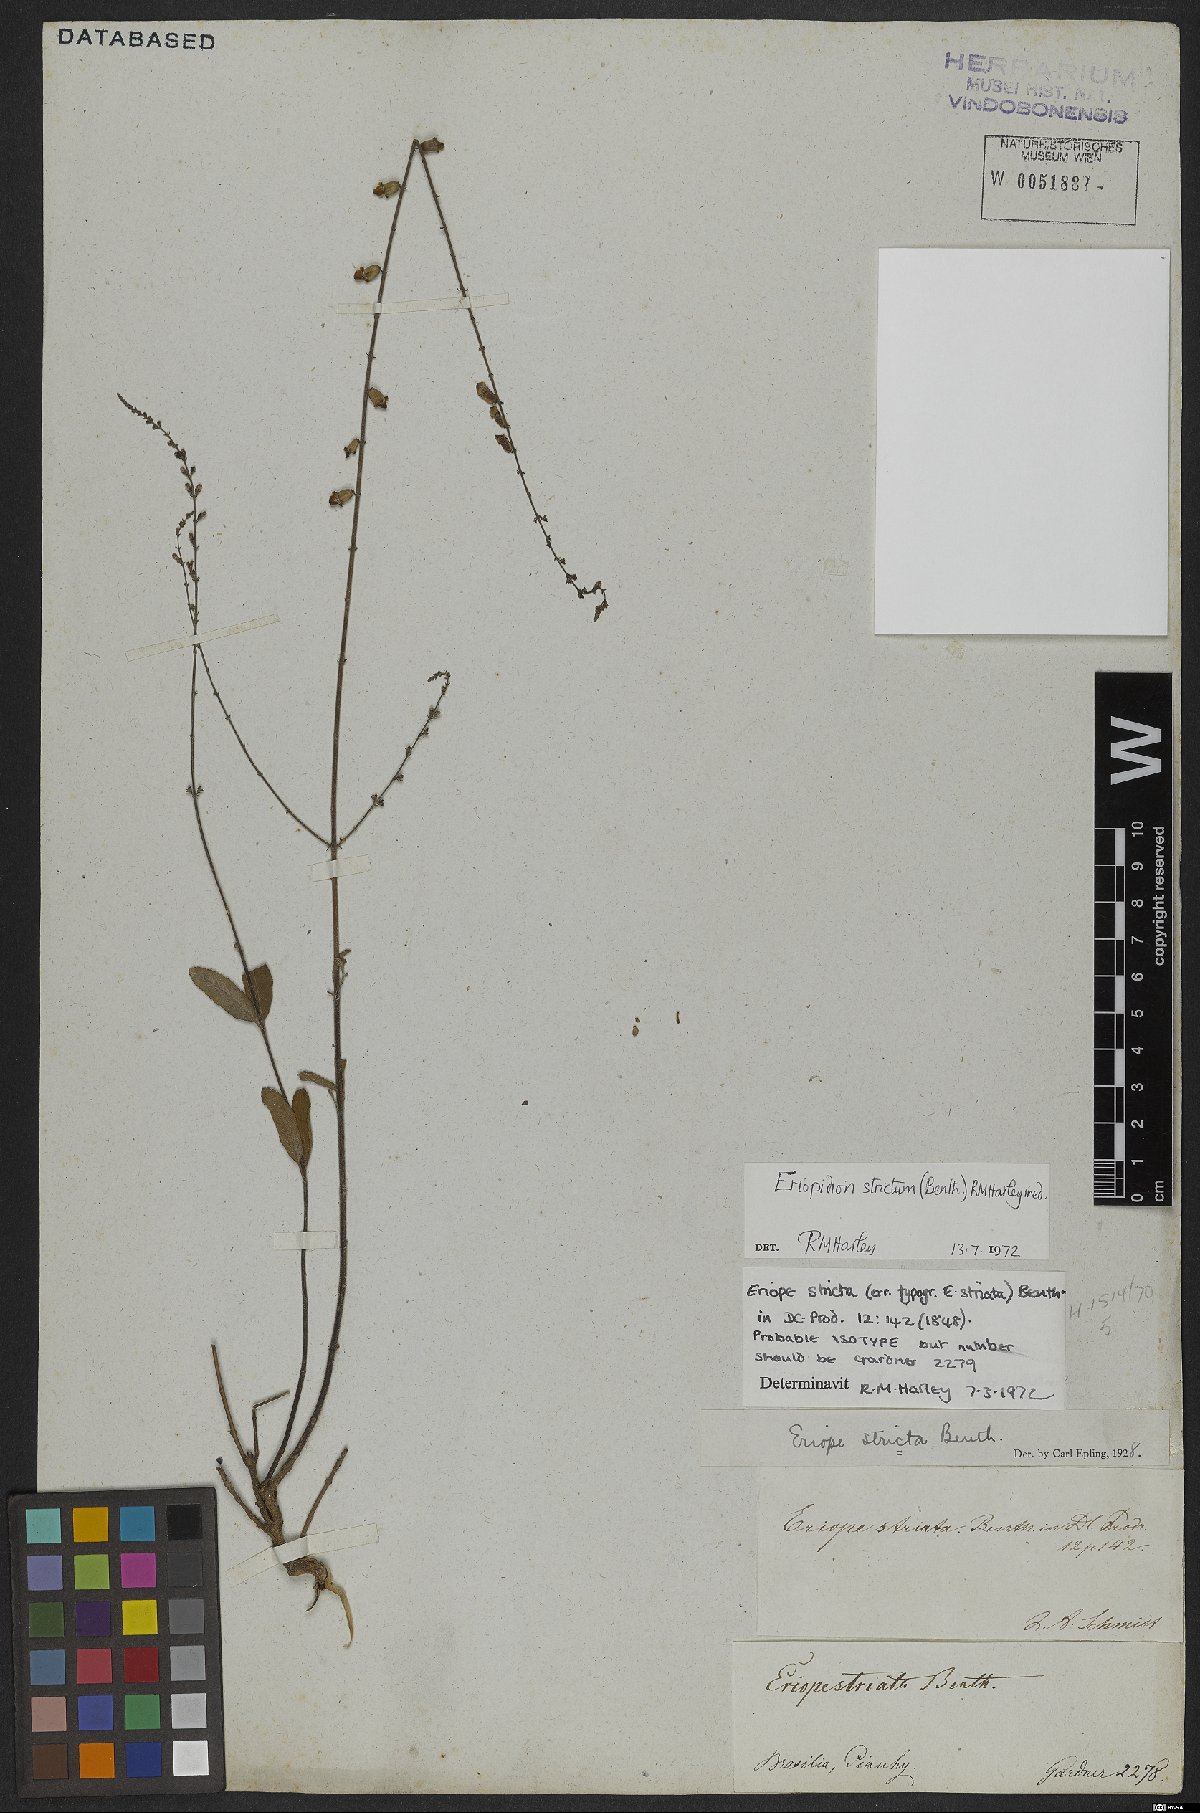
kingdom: Plantae
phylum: Tracheophyta
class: Magnoliopsida
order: Lamiales
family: Lamiaceae
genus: Eriopidion
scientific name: Eriopidion strictum
